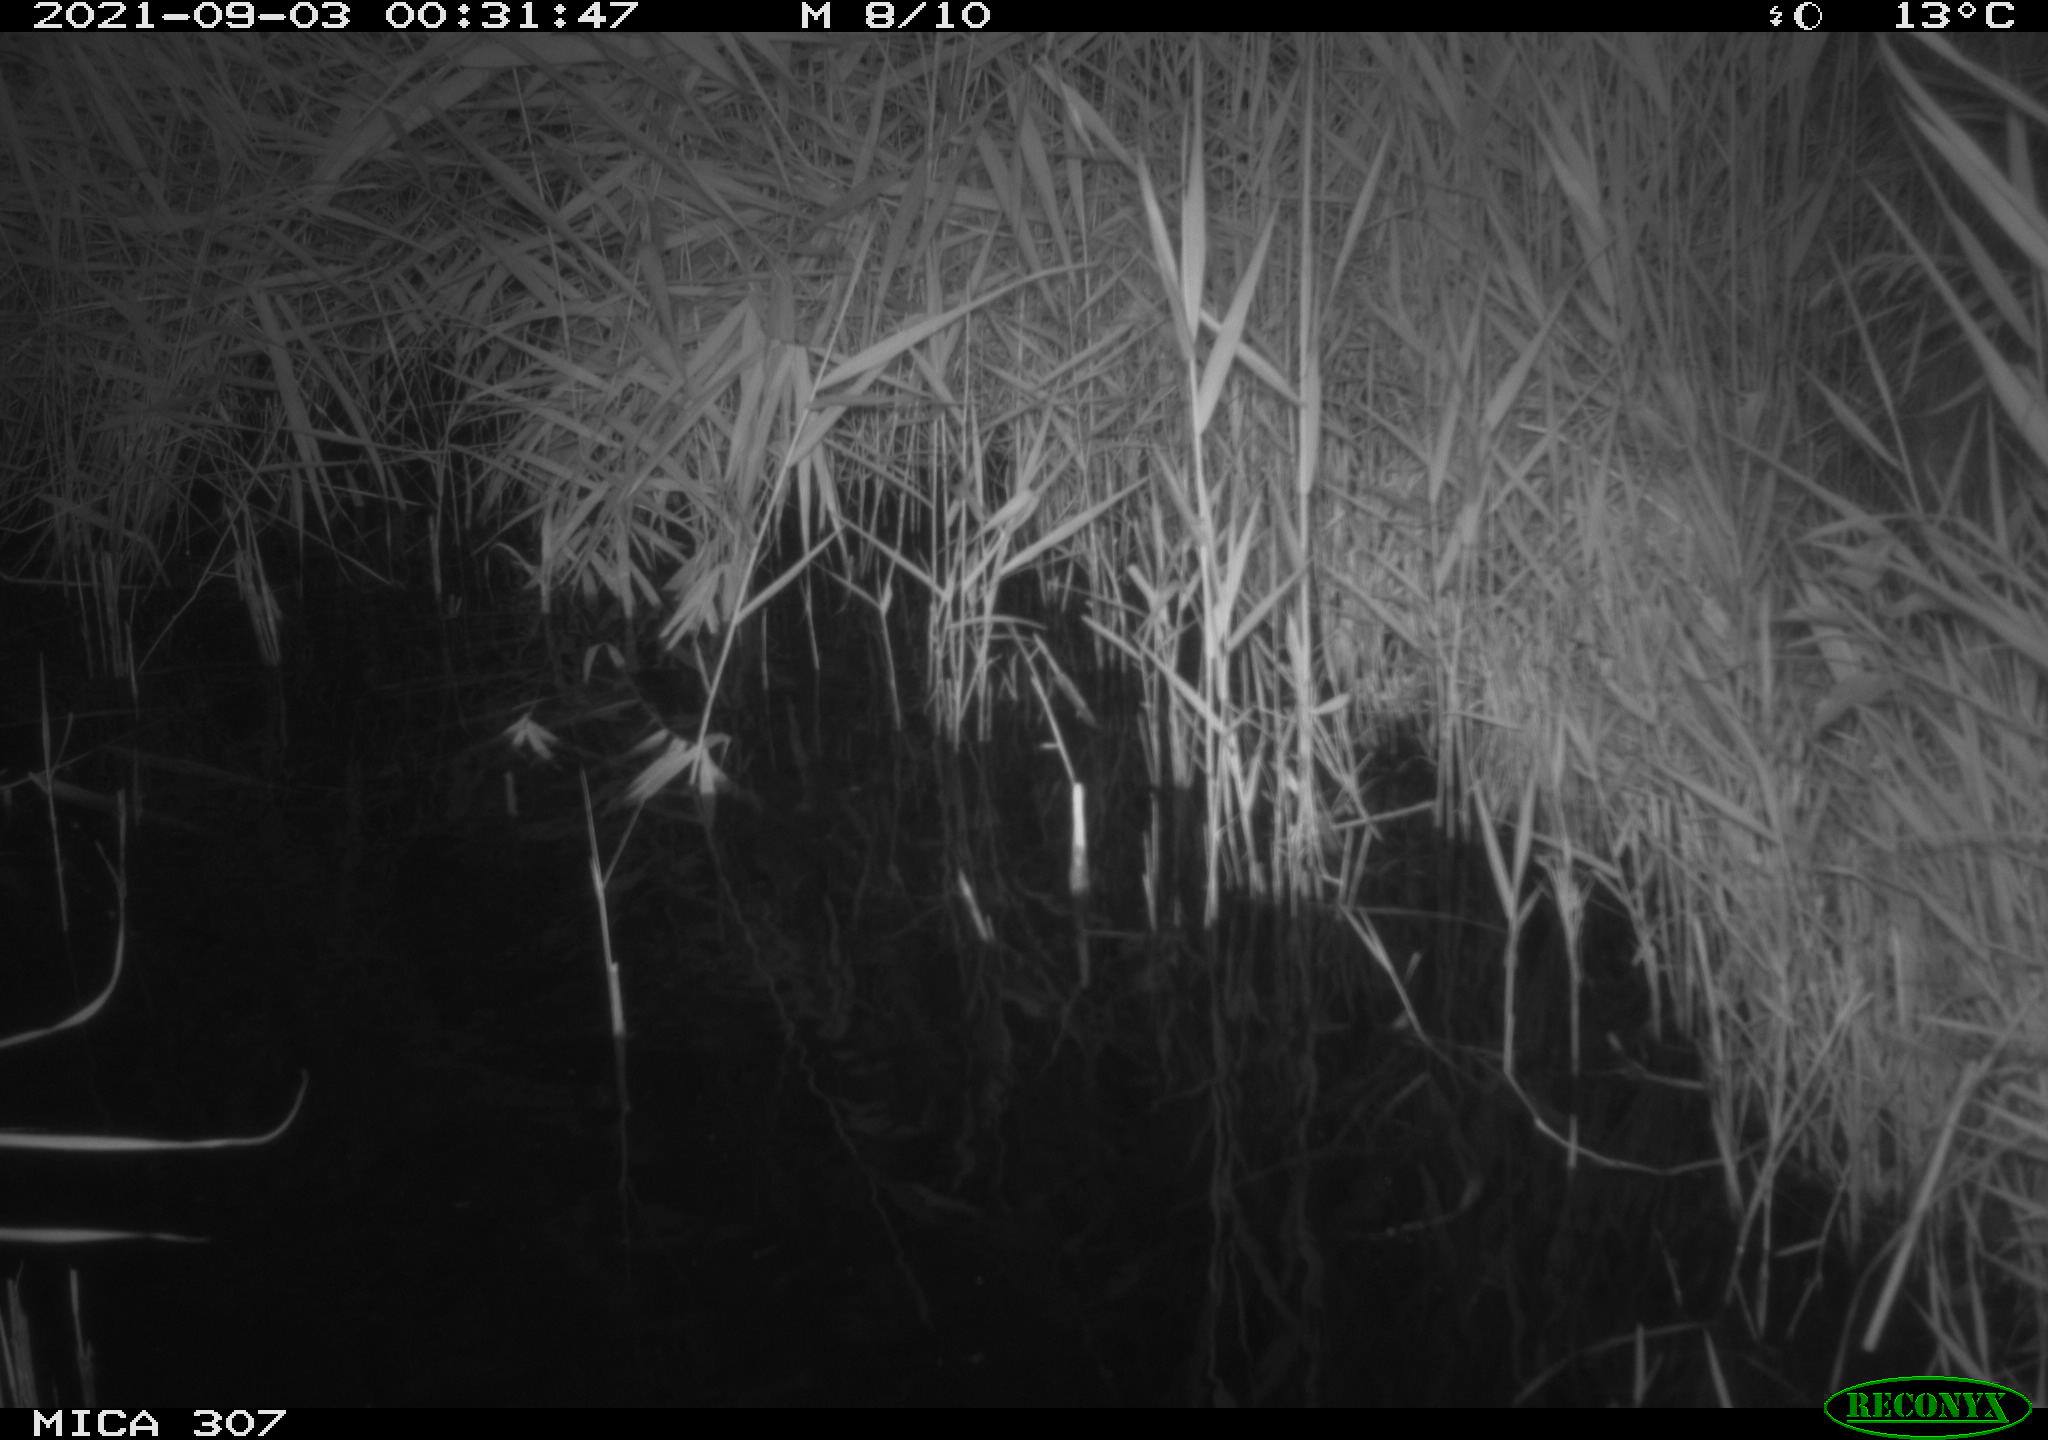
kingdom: Animalia
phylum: Chordata
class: Mammalia
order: Rodentia
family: Muridae
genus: Rattus
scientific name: Rattus norvegicus
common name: Brown rat
